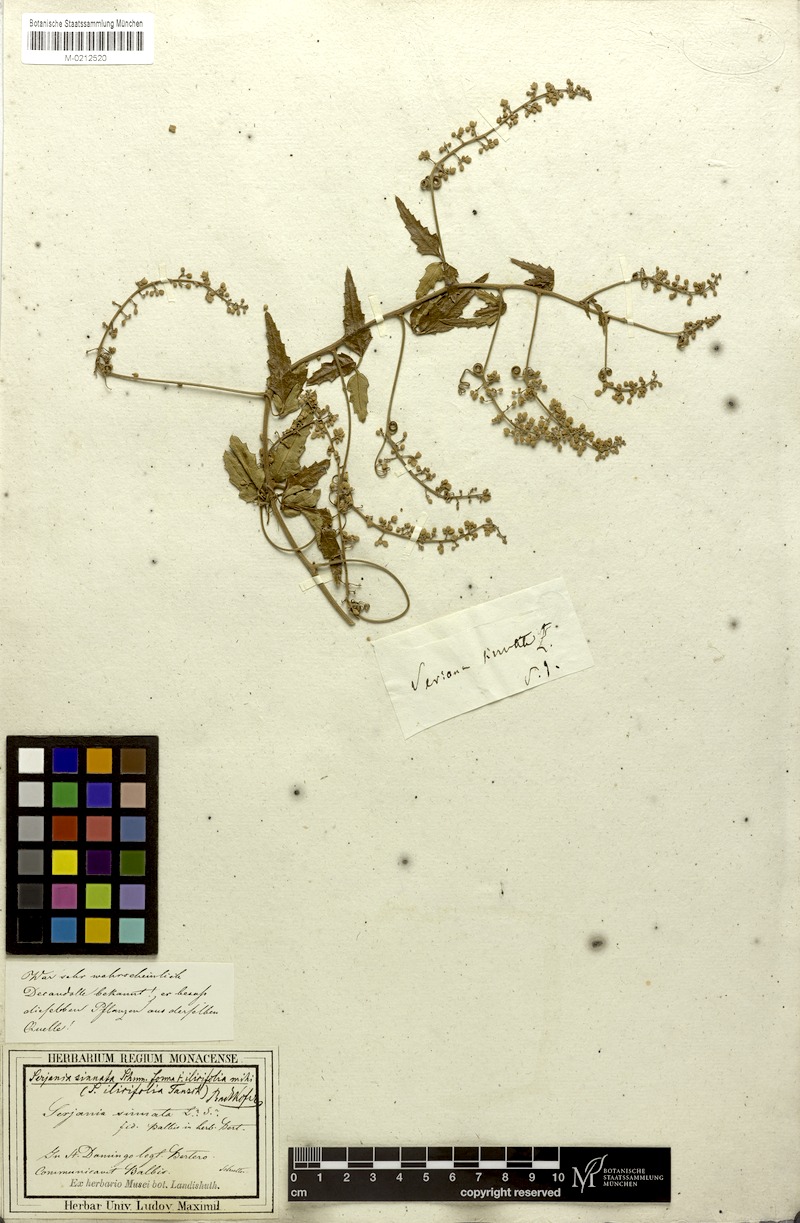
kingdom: Plantae
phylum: Tracheophyta
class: Magnoliopsida
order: Sapindales
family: Sapindaceae
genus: Serjania
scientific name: Serjania seriana
